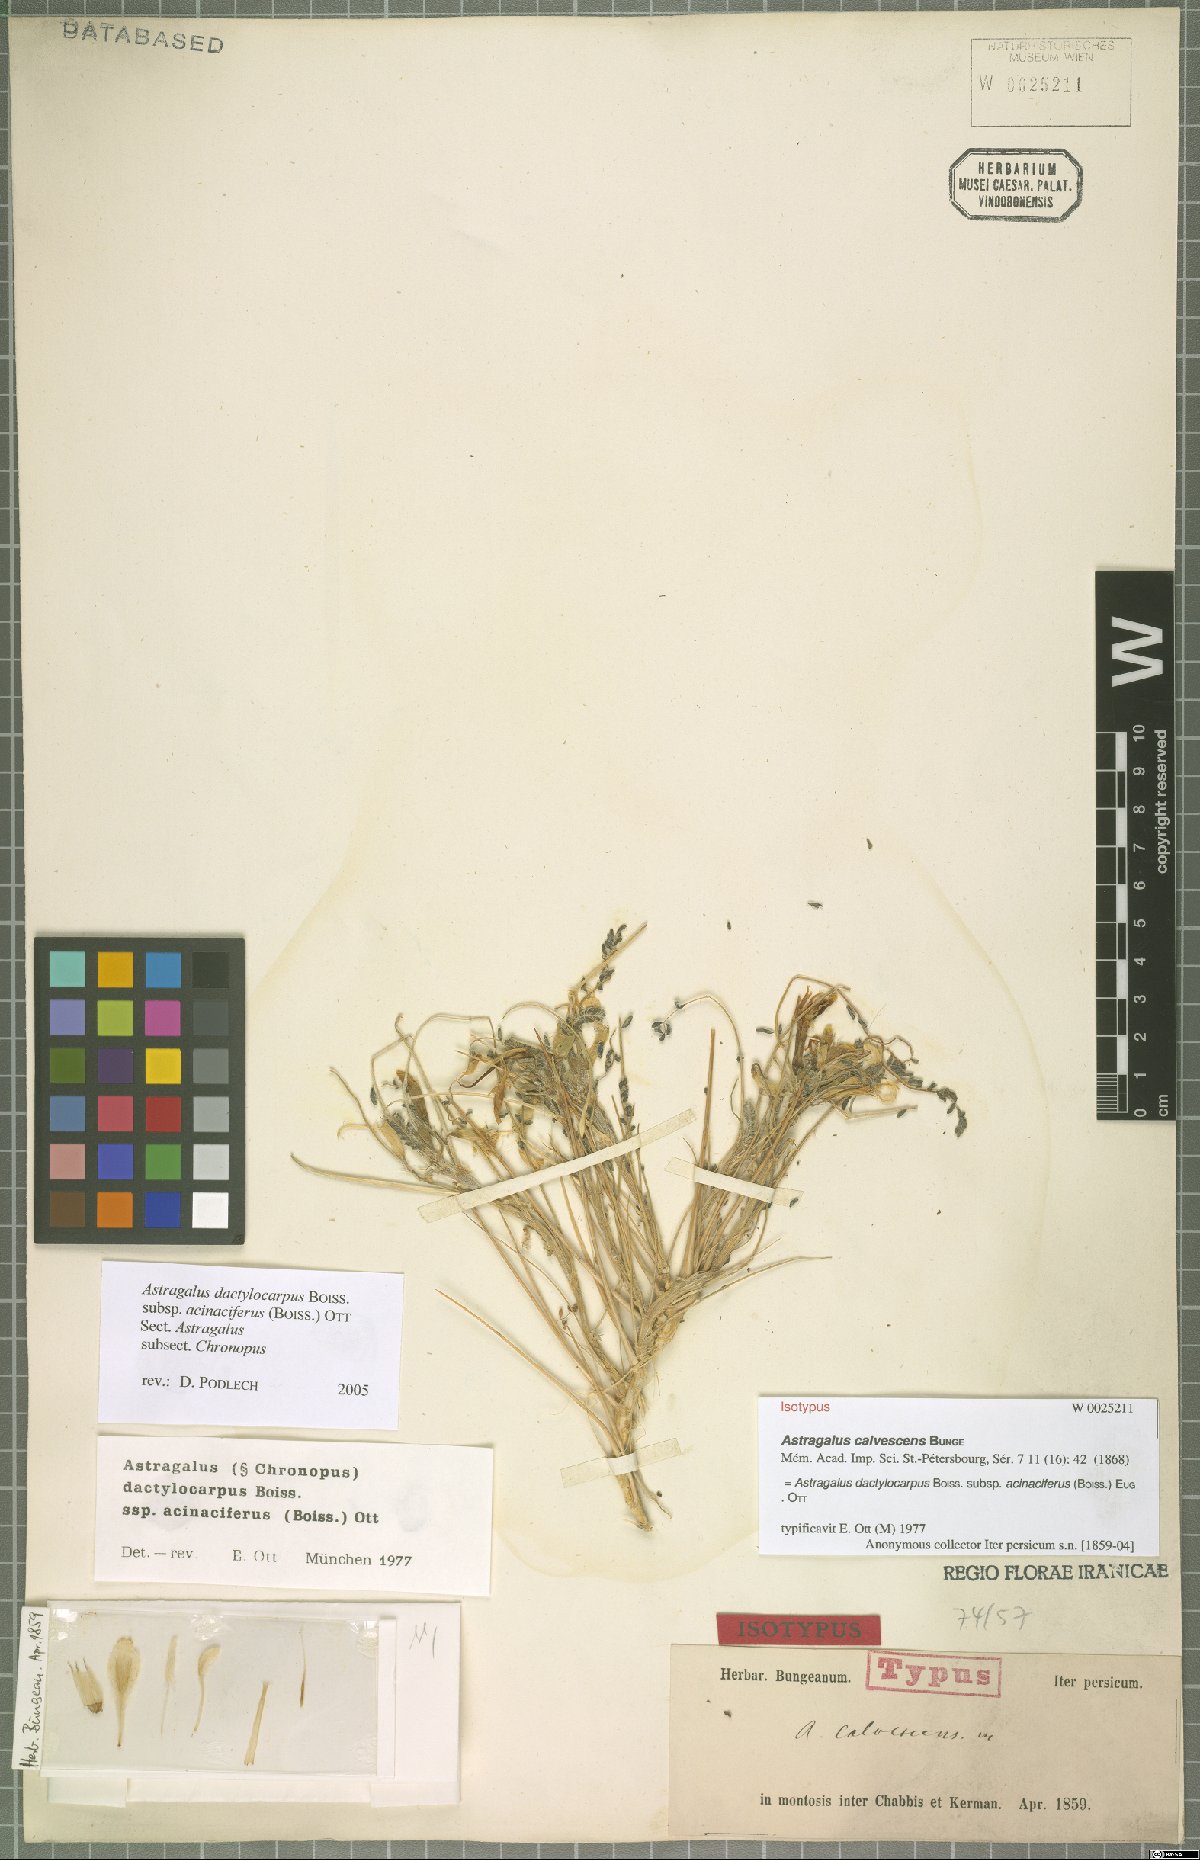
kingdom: Plantae
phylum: Tracheophyta
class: Magnoliopsida
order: Fabales
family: Fabaceae
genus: Astragalus
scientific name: Astragalus dactylocarpus
